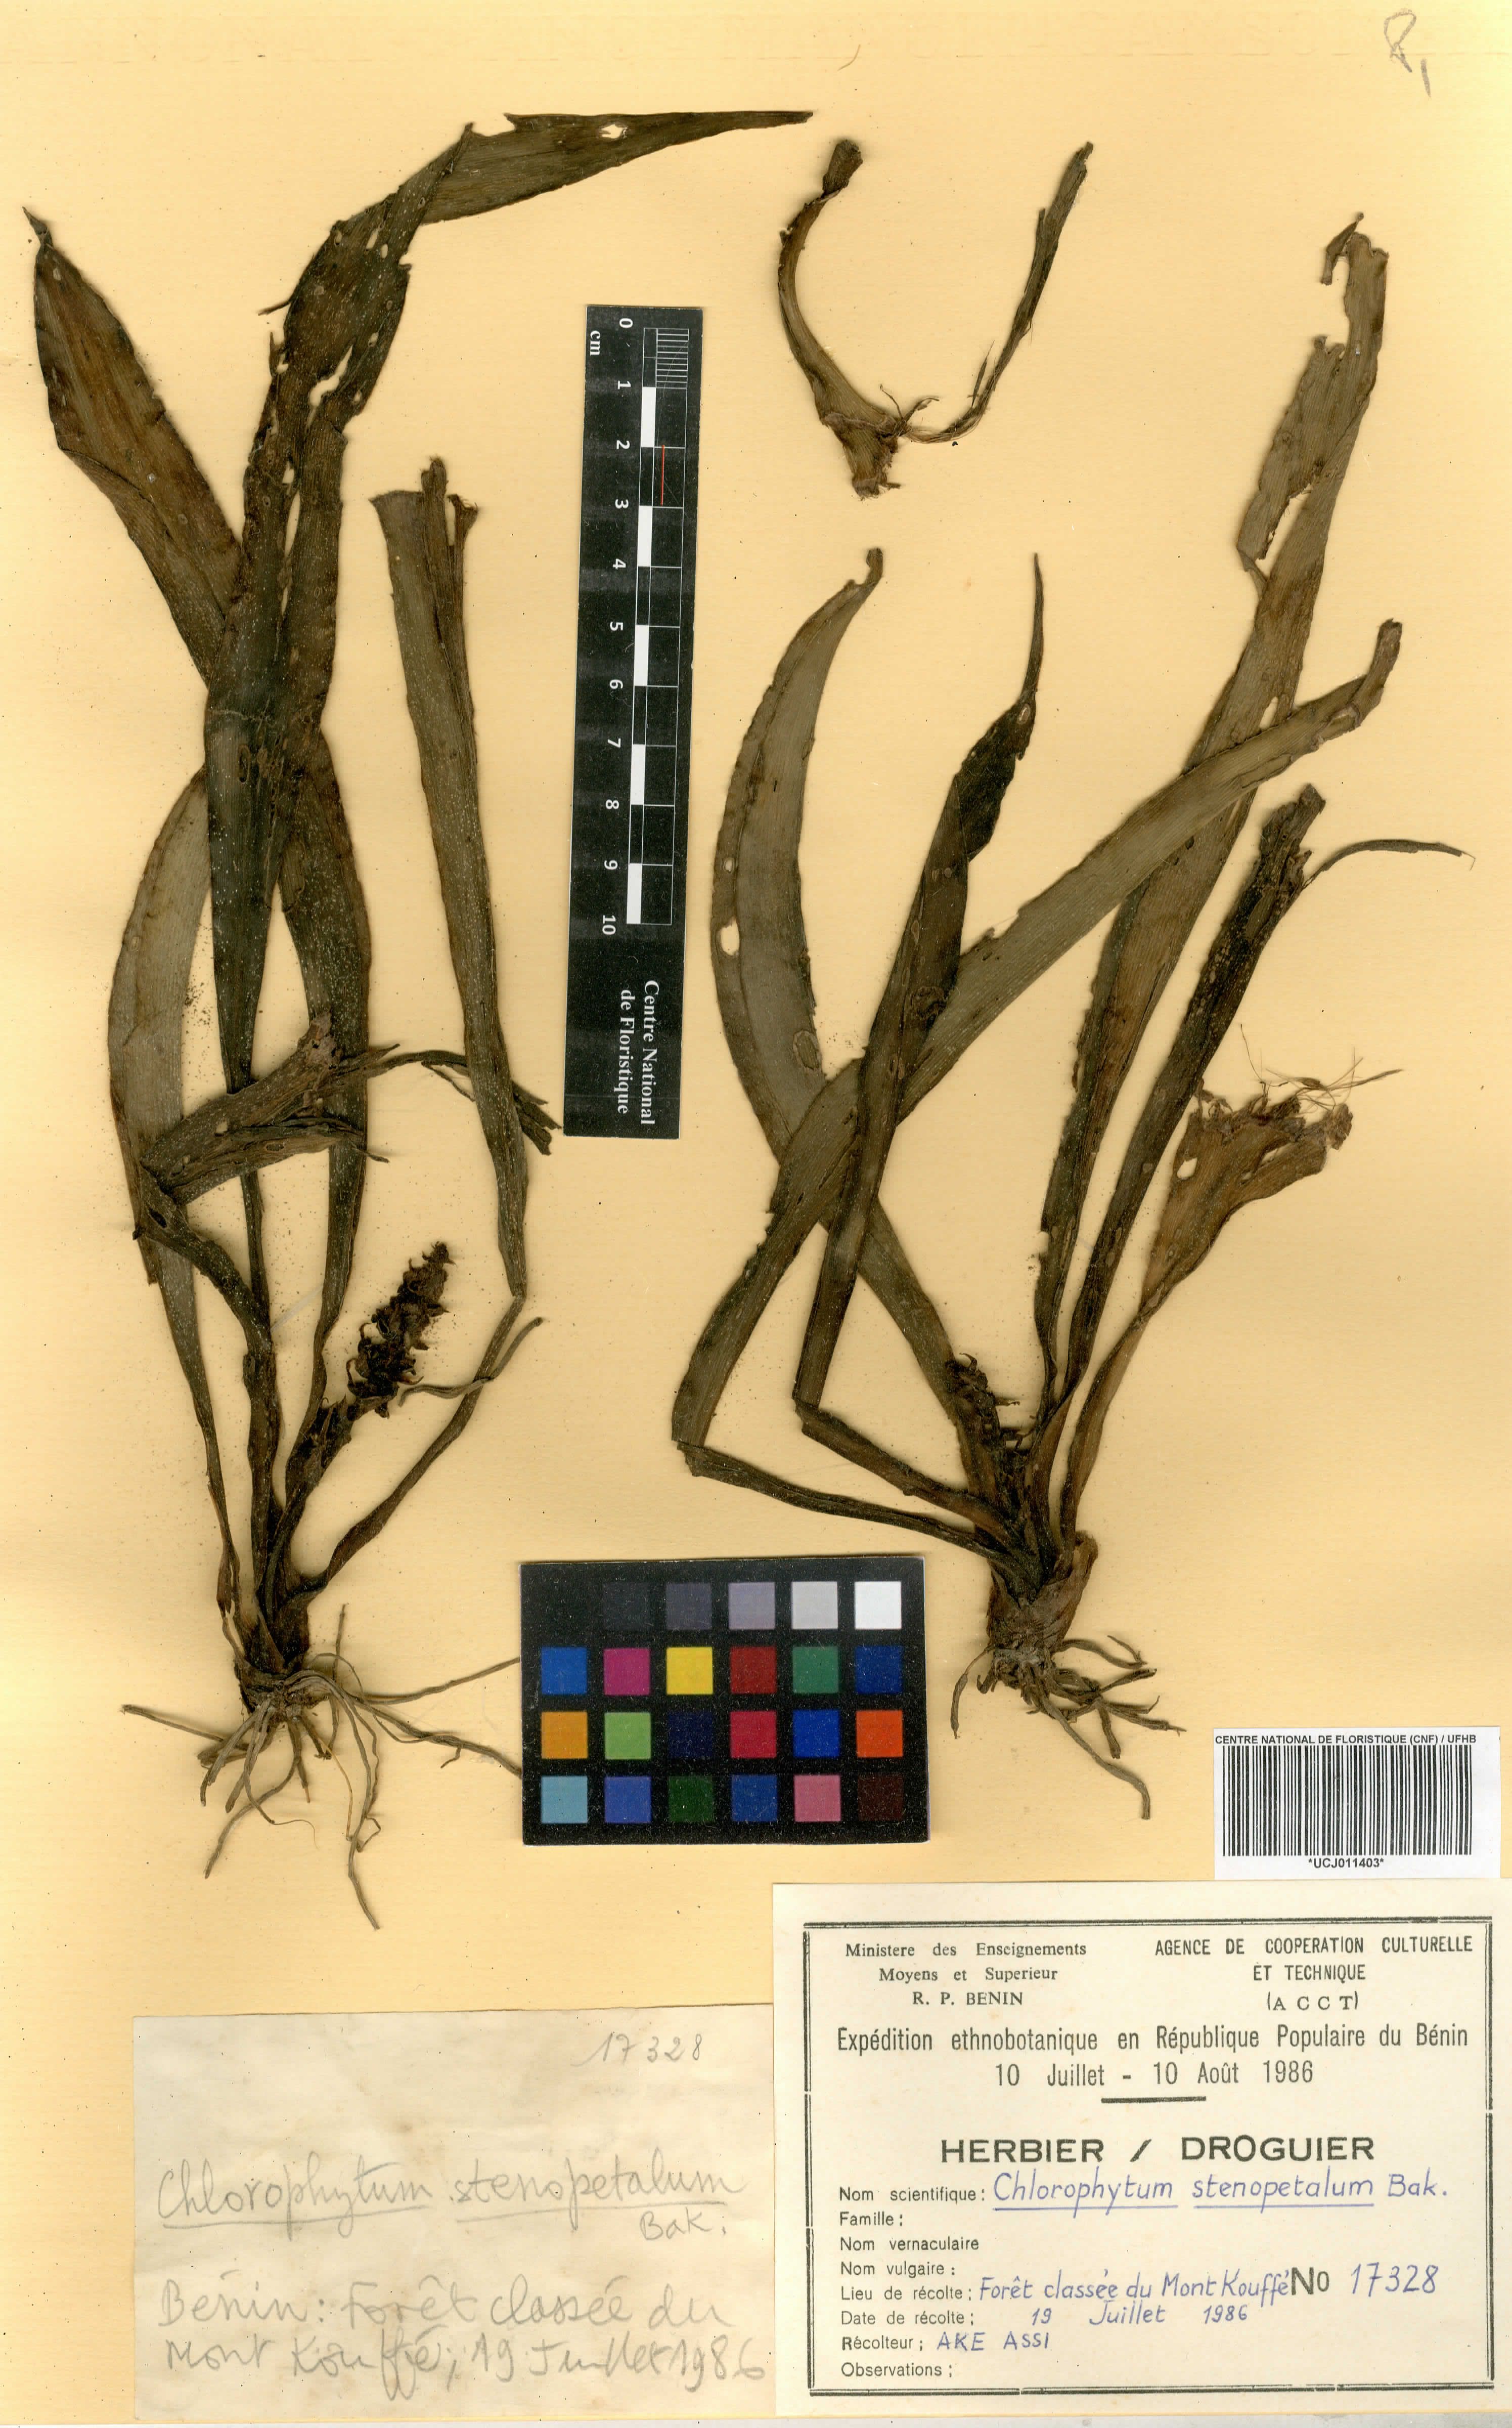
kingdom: Plantae
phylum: Tracheophyta
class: Liliopsida
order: Asparagales
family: Asparagaceae
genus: Chlorophytum
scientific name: Chlorophytum stenopetalum
